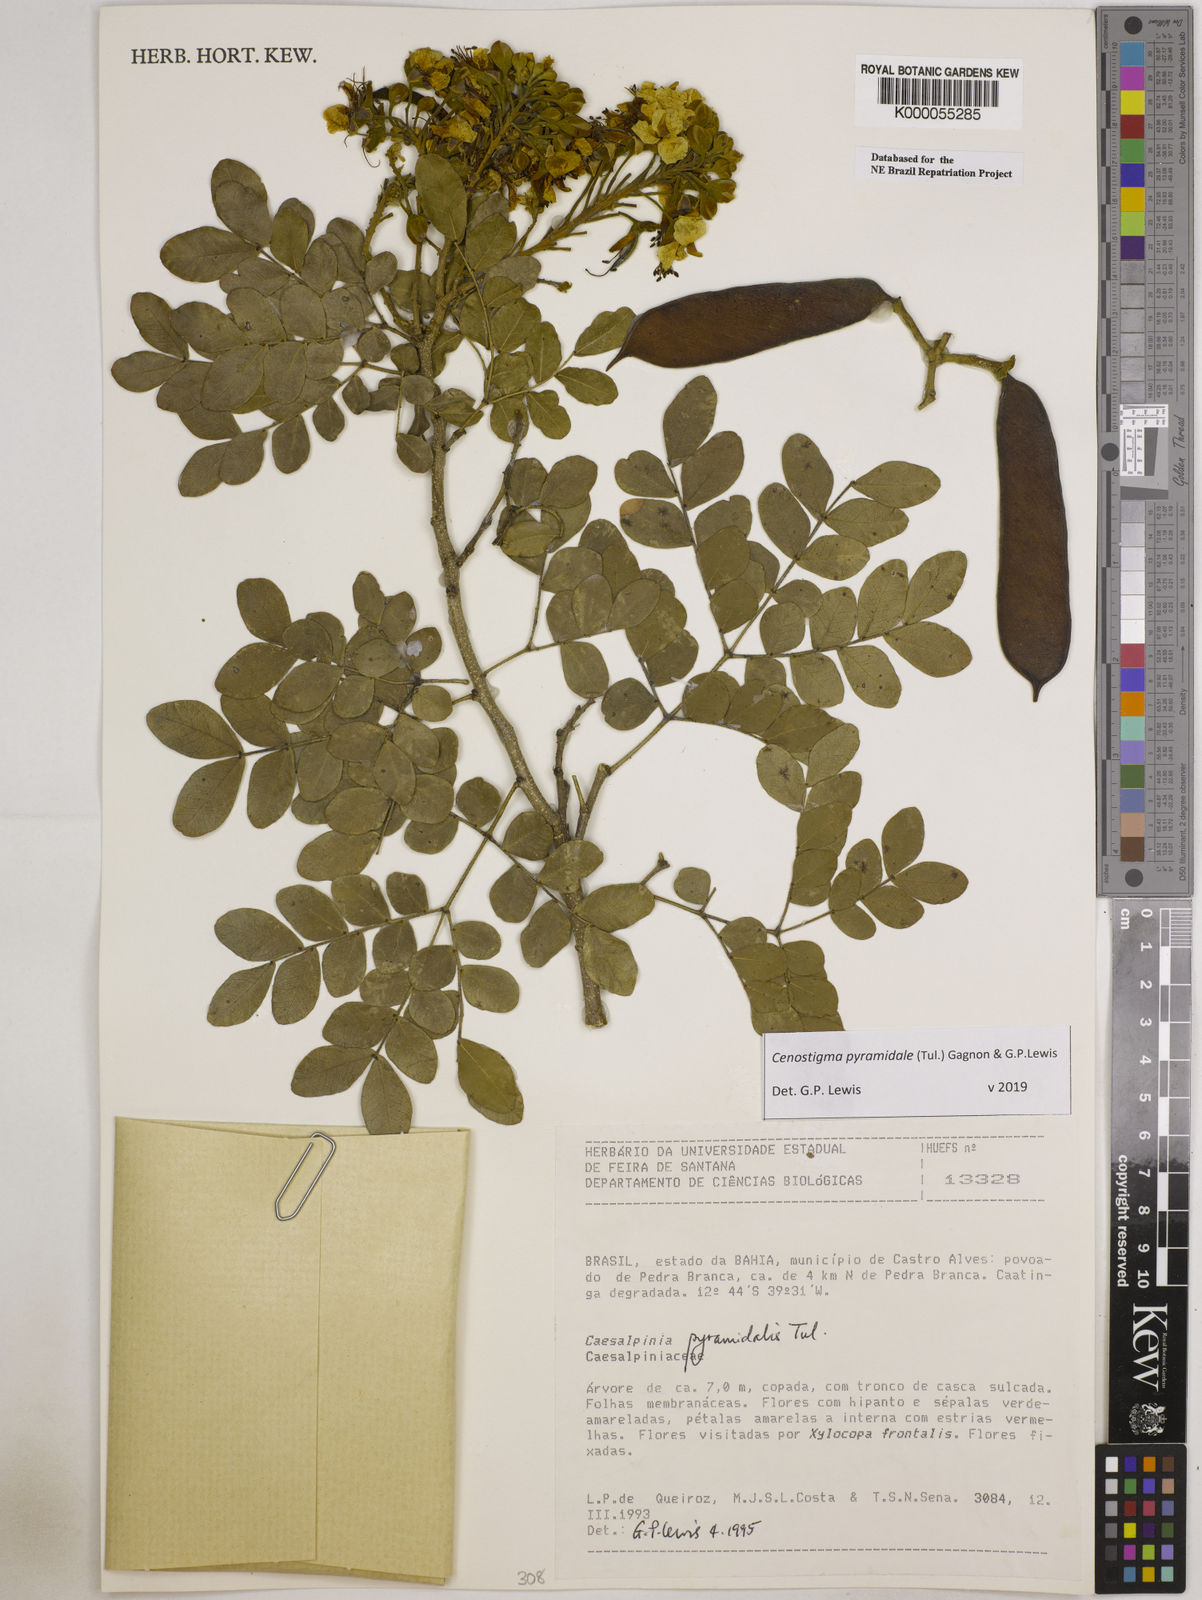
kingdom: Plantae
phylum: Tracheophyta
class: Magnoliopsida
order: Fabales
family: Fabaceae
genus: Cenostigma
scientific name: Cenostigma pyramidale
